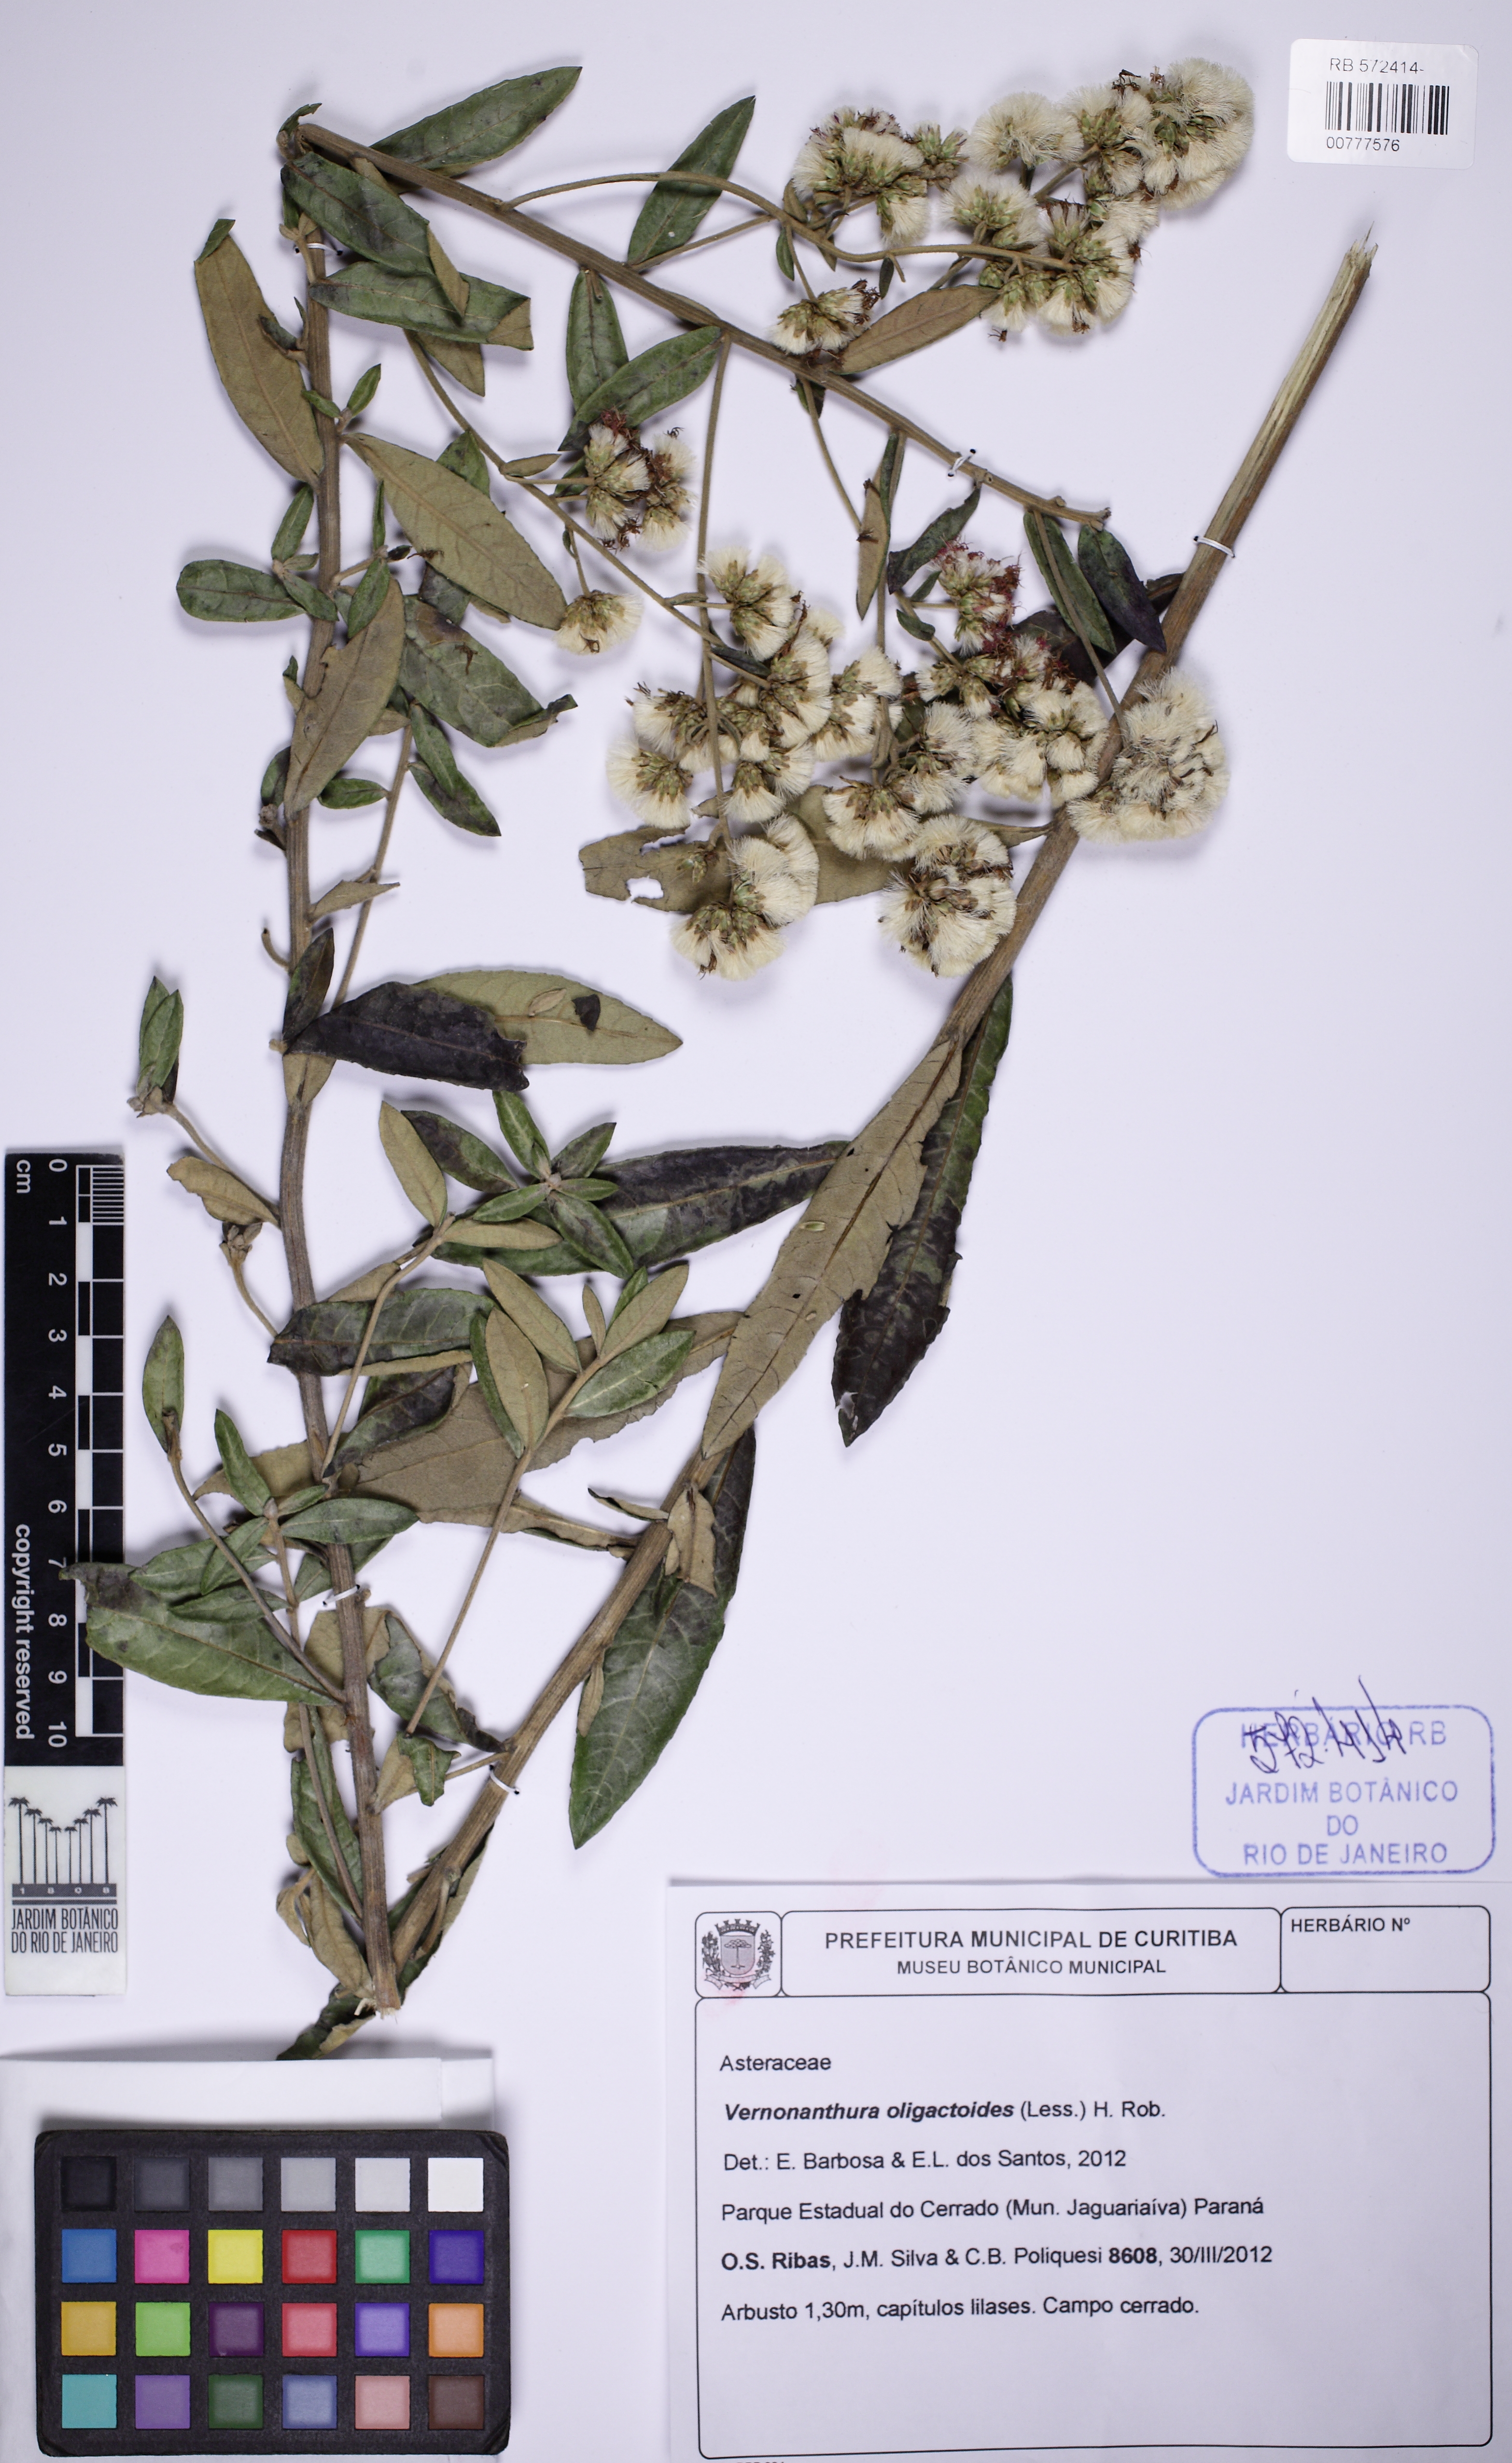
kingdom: Plantae
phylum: Tracheophyta
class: Magnoliopsida
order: Asterales
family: Asteraceae
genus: Vernonanthura
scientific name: Vernonanthura oligactoides
